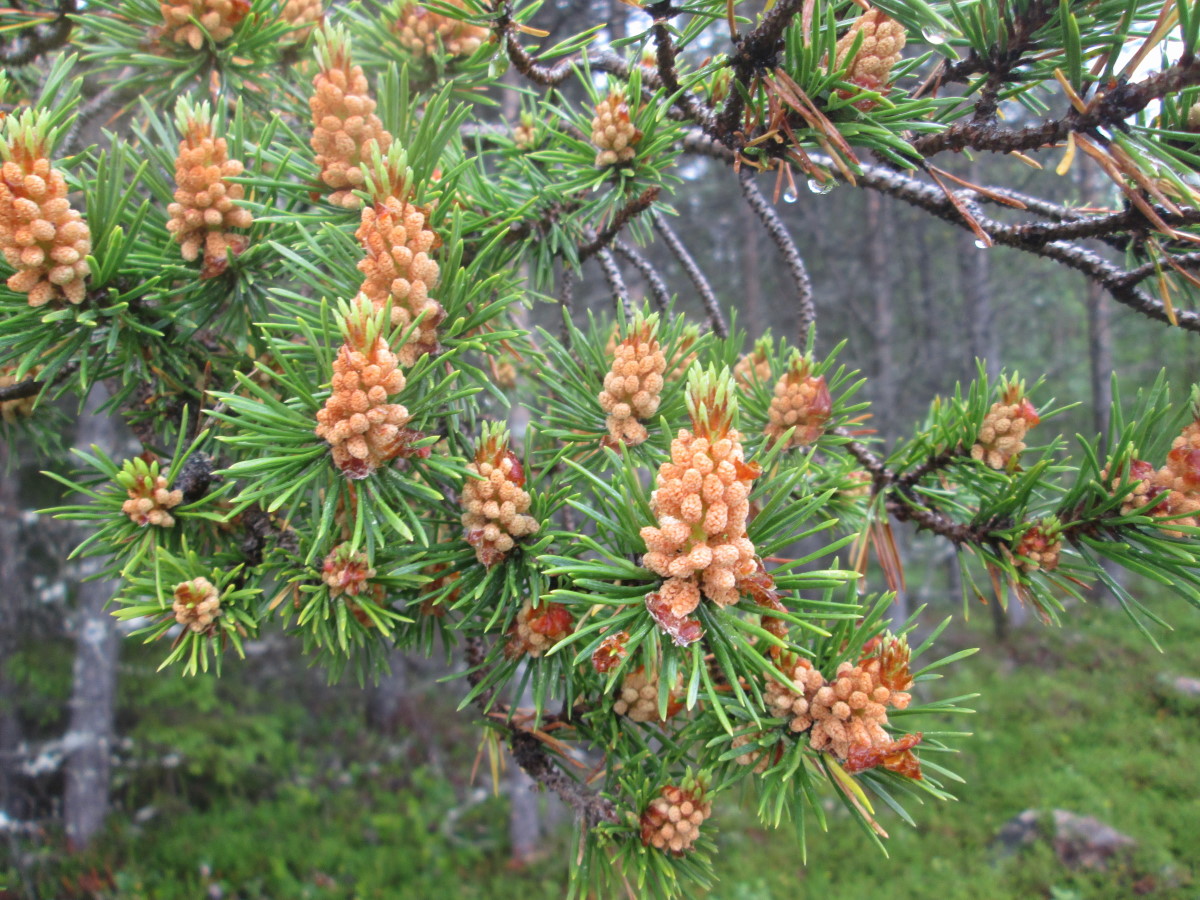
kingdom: Plantae
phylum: Tracheophyta
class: Pinopsida
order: Pinales
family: Pinaceae
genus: Pinus
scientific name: Pinus sylvestris
